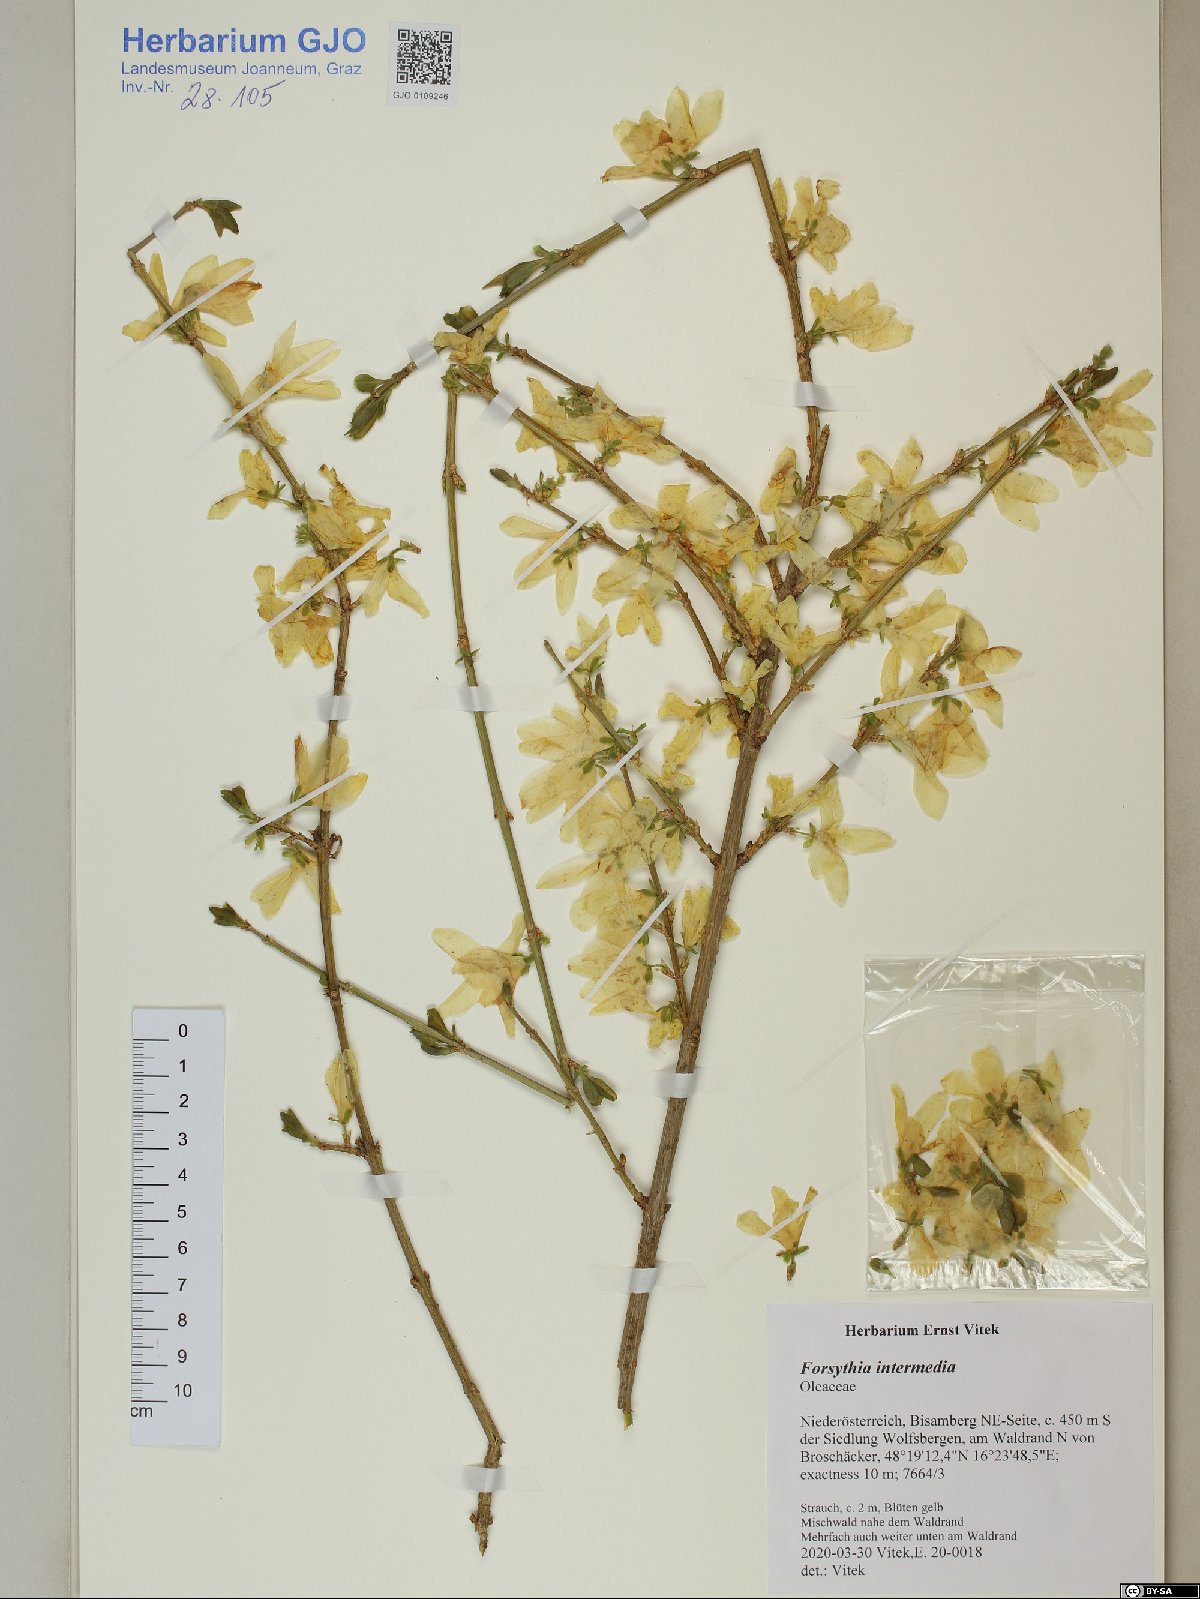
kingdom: Plantae
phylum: Tracheophyta
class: Magnoliopsida
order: Lamiales
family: Oleaceae
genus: Forsythia
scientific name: Forsythia intermedia
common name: Forsythia
